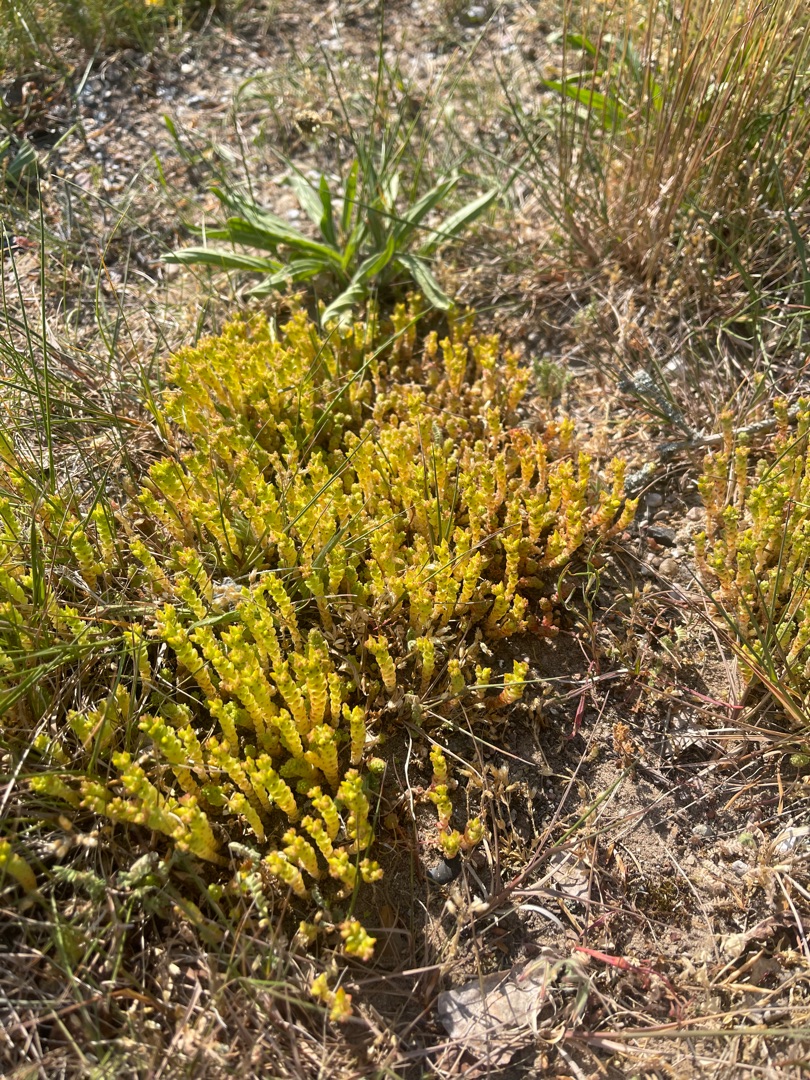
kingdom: Plantae
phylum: Tracheophyta
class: Magnoliopsida
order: Saxifragales
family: Crassulaceae
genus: Sedum
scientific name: Sedum acre
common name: Bidende stenurt
